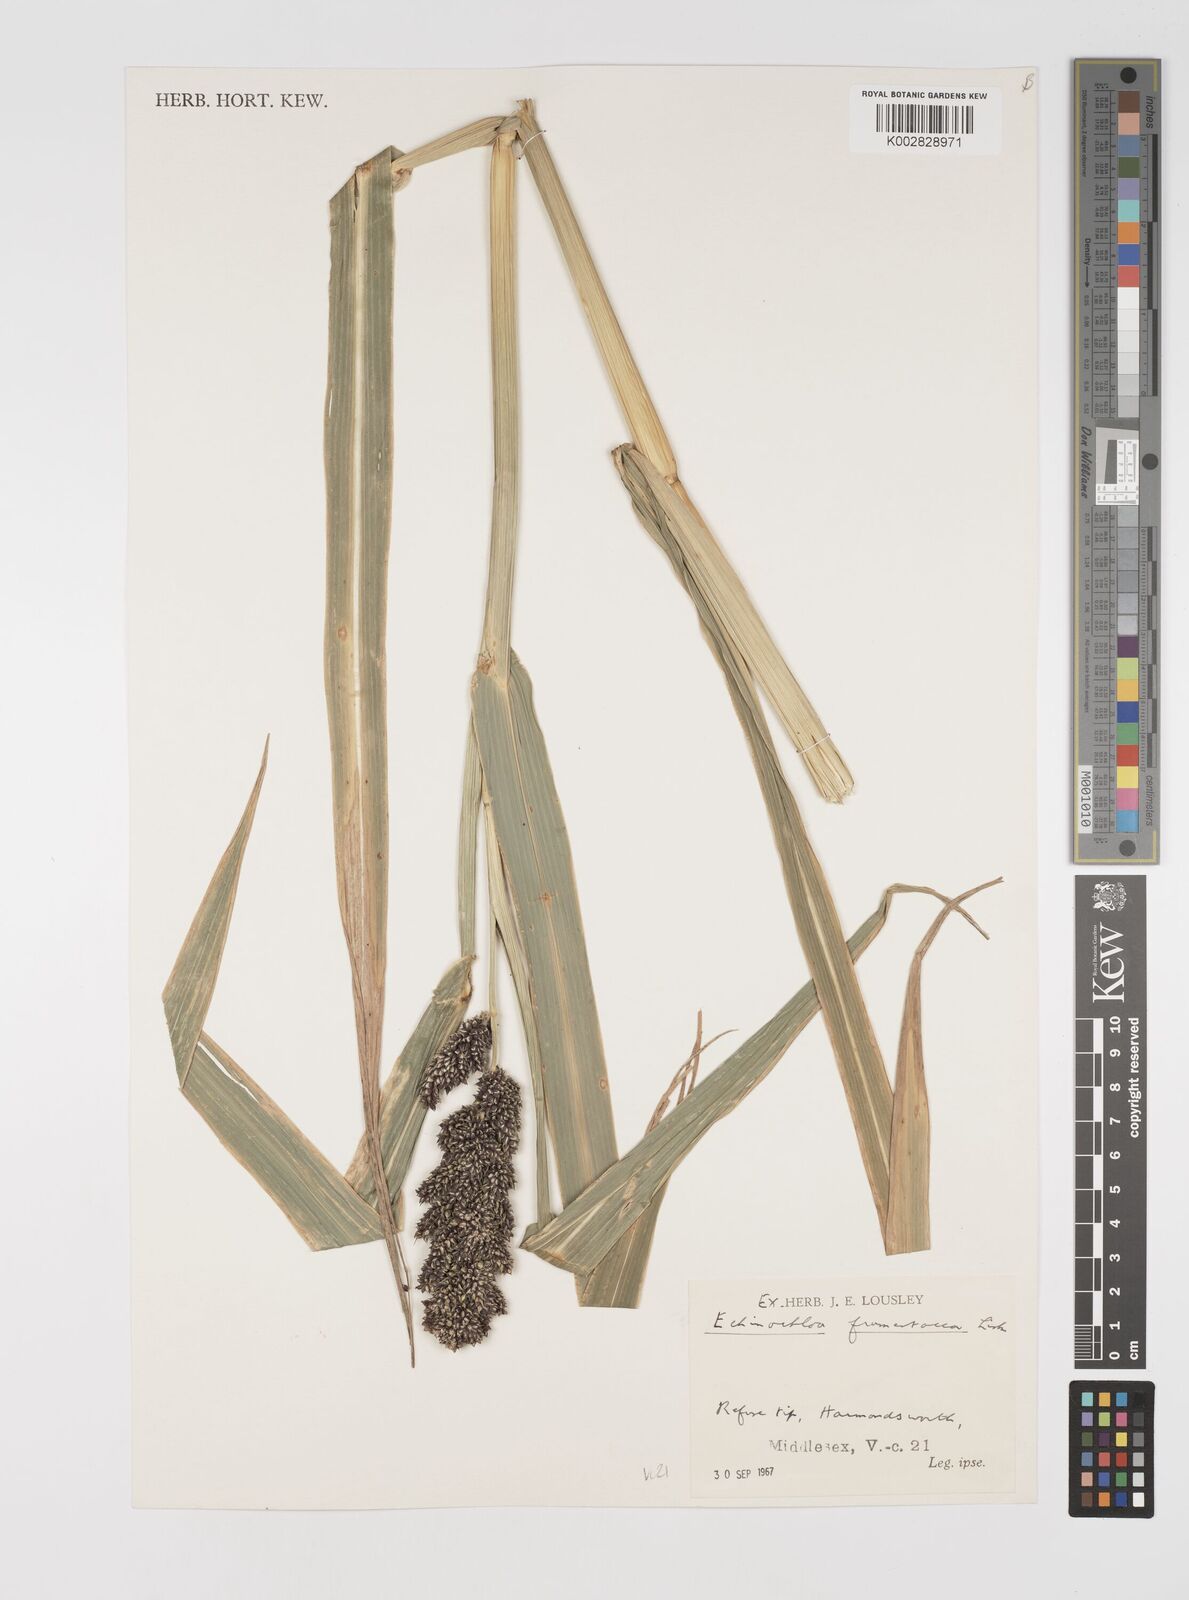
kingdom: Plantae
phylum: Tracheophyta
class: Liliopsida
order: Poales
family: Poaceae
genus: Echinochloa
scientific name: Echinochloa crus-galli
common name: Cockspur
